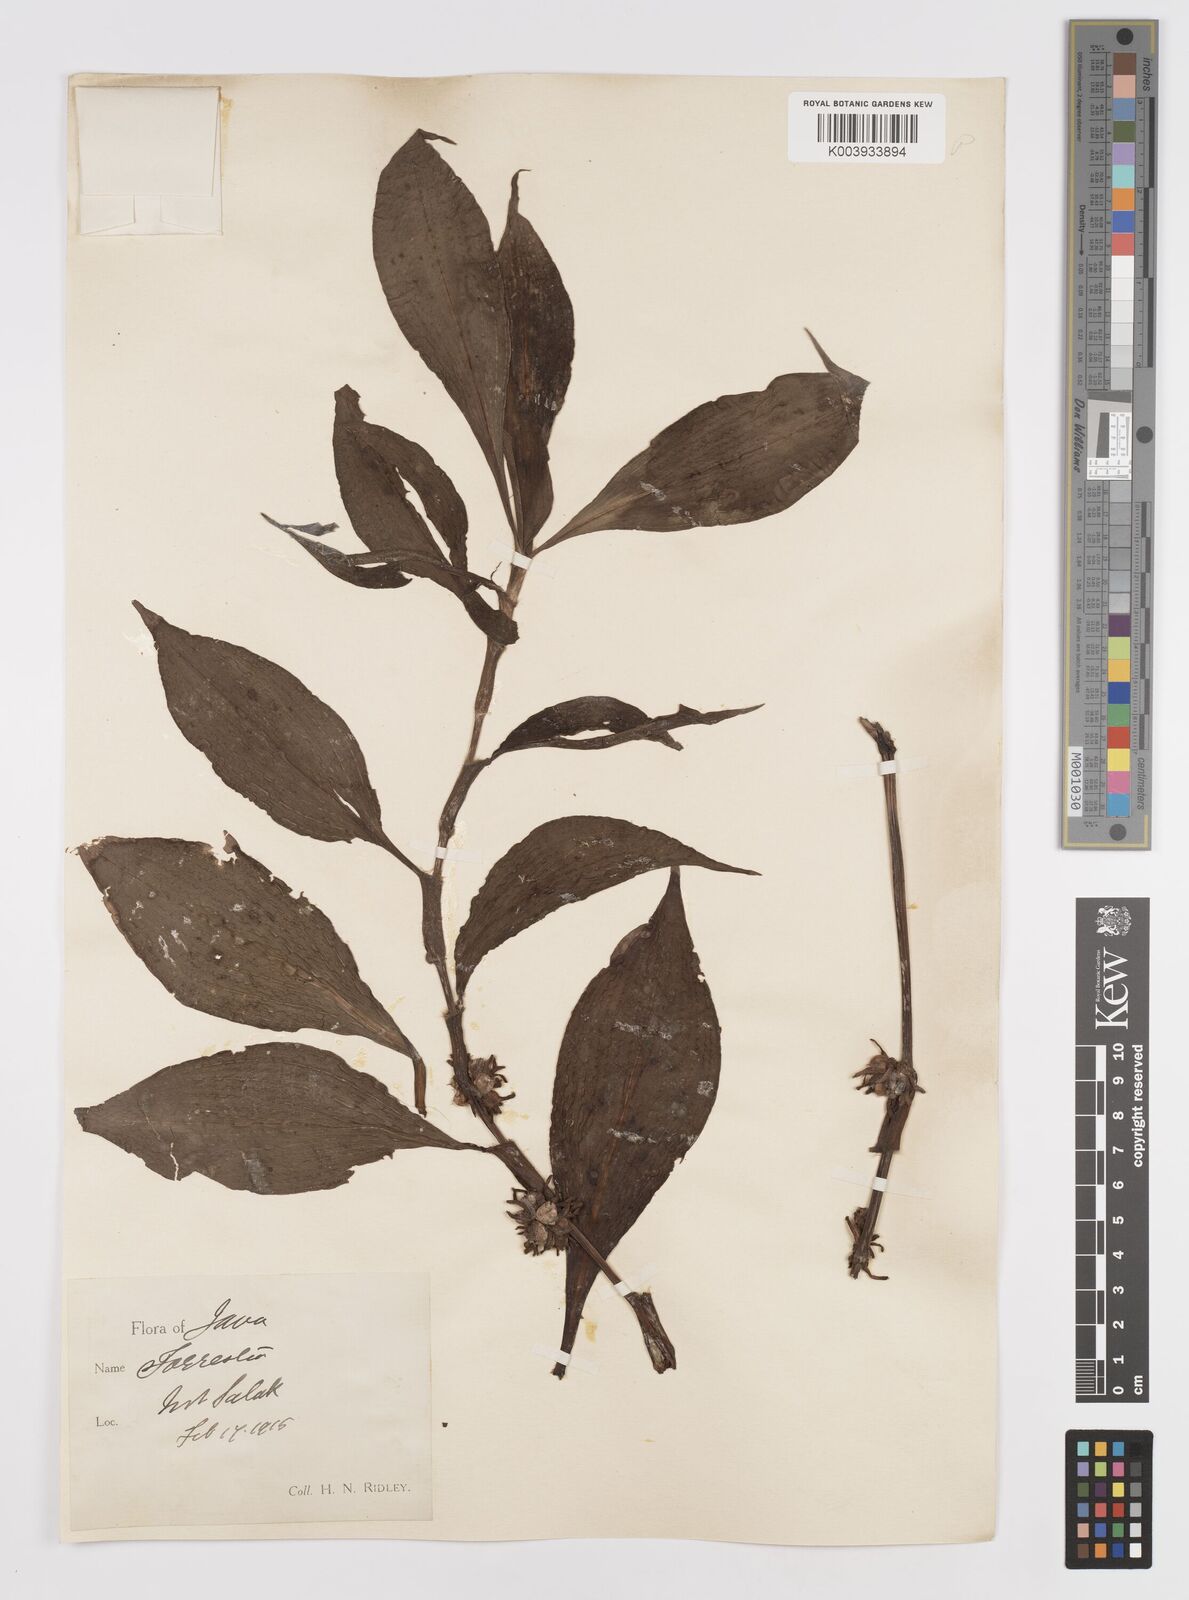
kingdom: Plantae
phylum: Tracheophyta
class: Liliopsida
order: Commelinales
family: Commelinaceae
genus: Amischotolype
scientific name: Amischotolype glabrata
